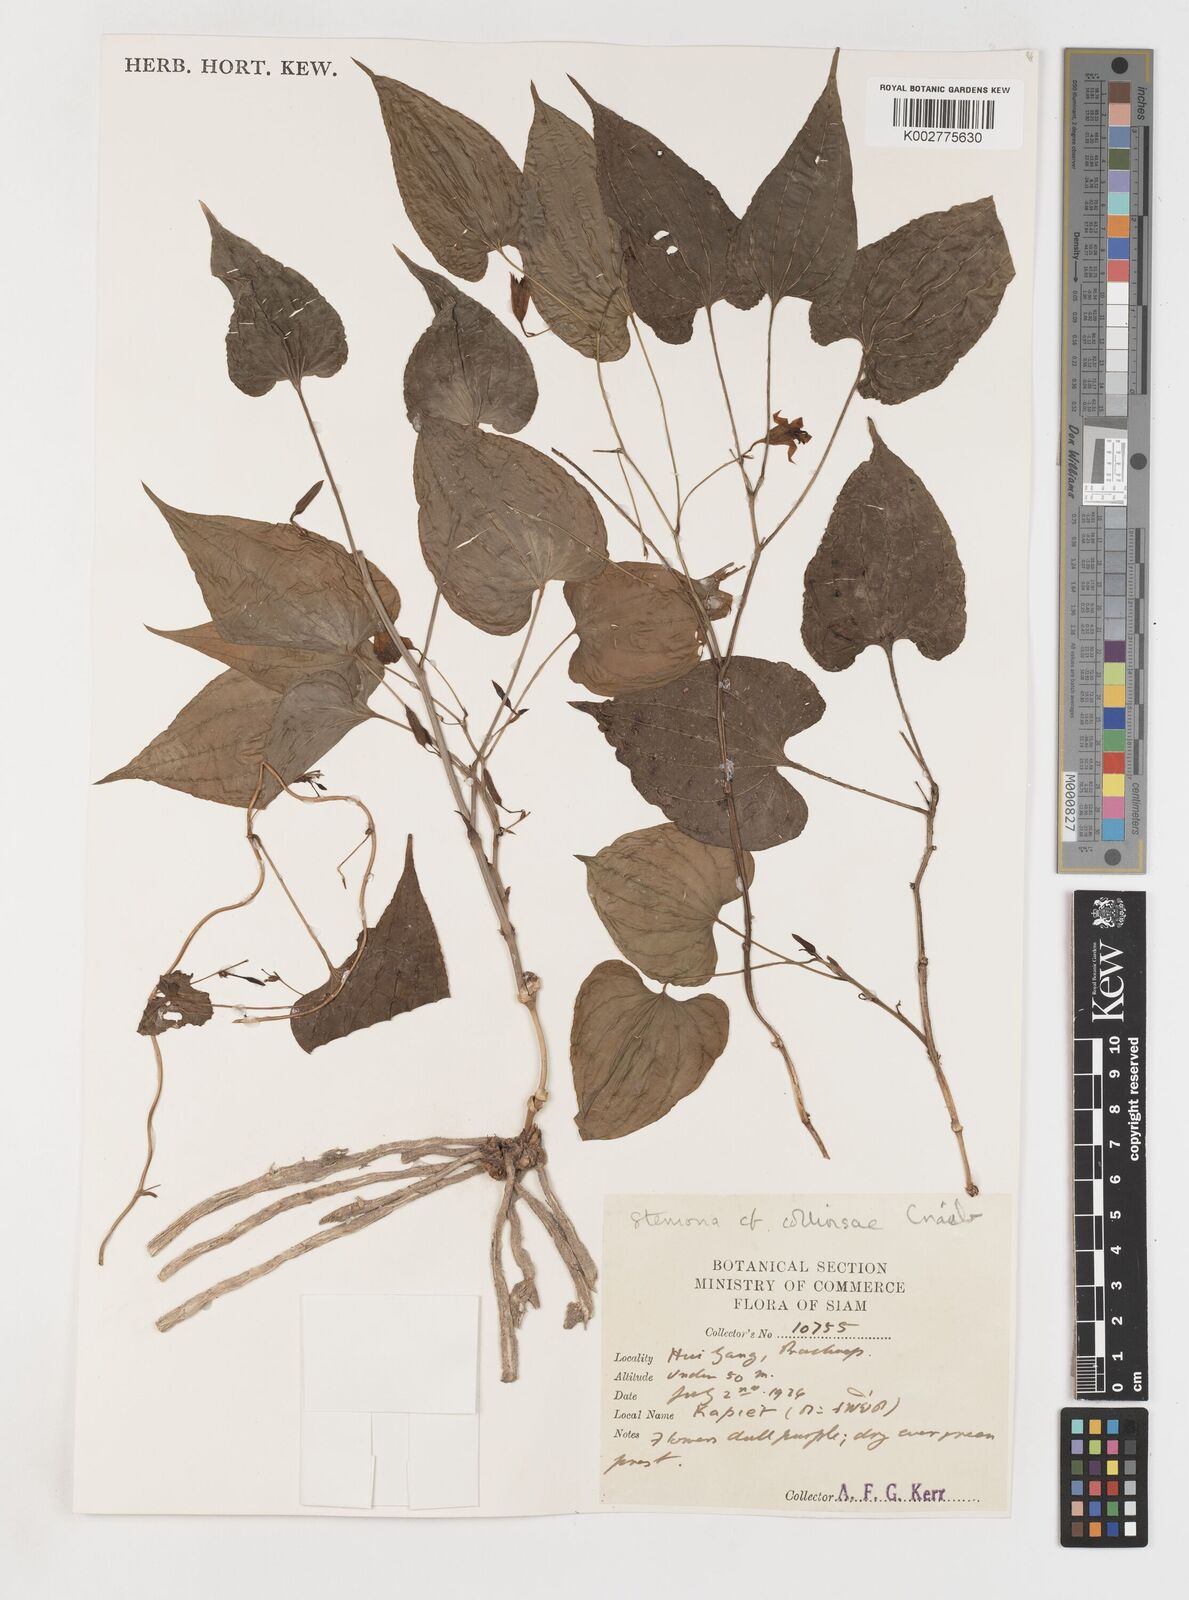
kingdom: Plantae
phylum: Tracheophyta
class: Liliopsida
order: Pandanales
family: Stemonaceae
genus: Stemona
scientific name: Stemona collinsiae
